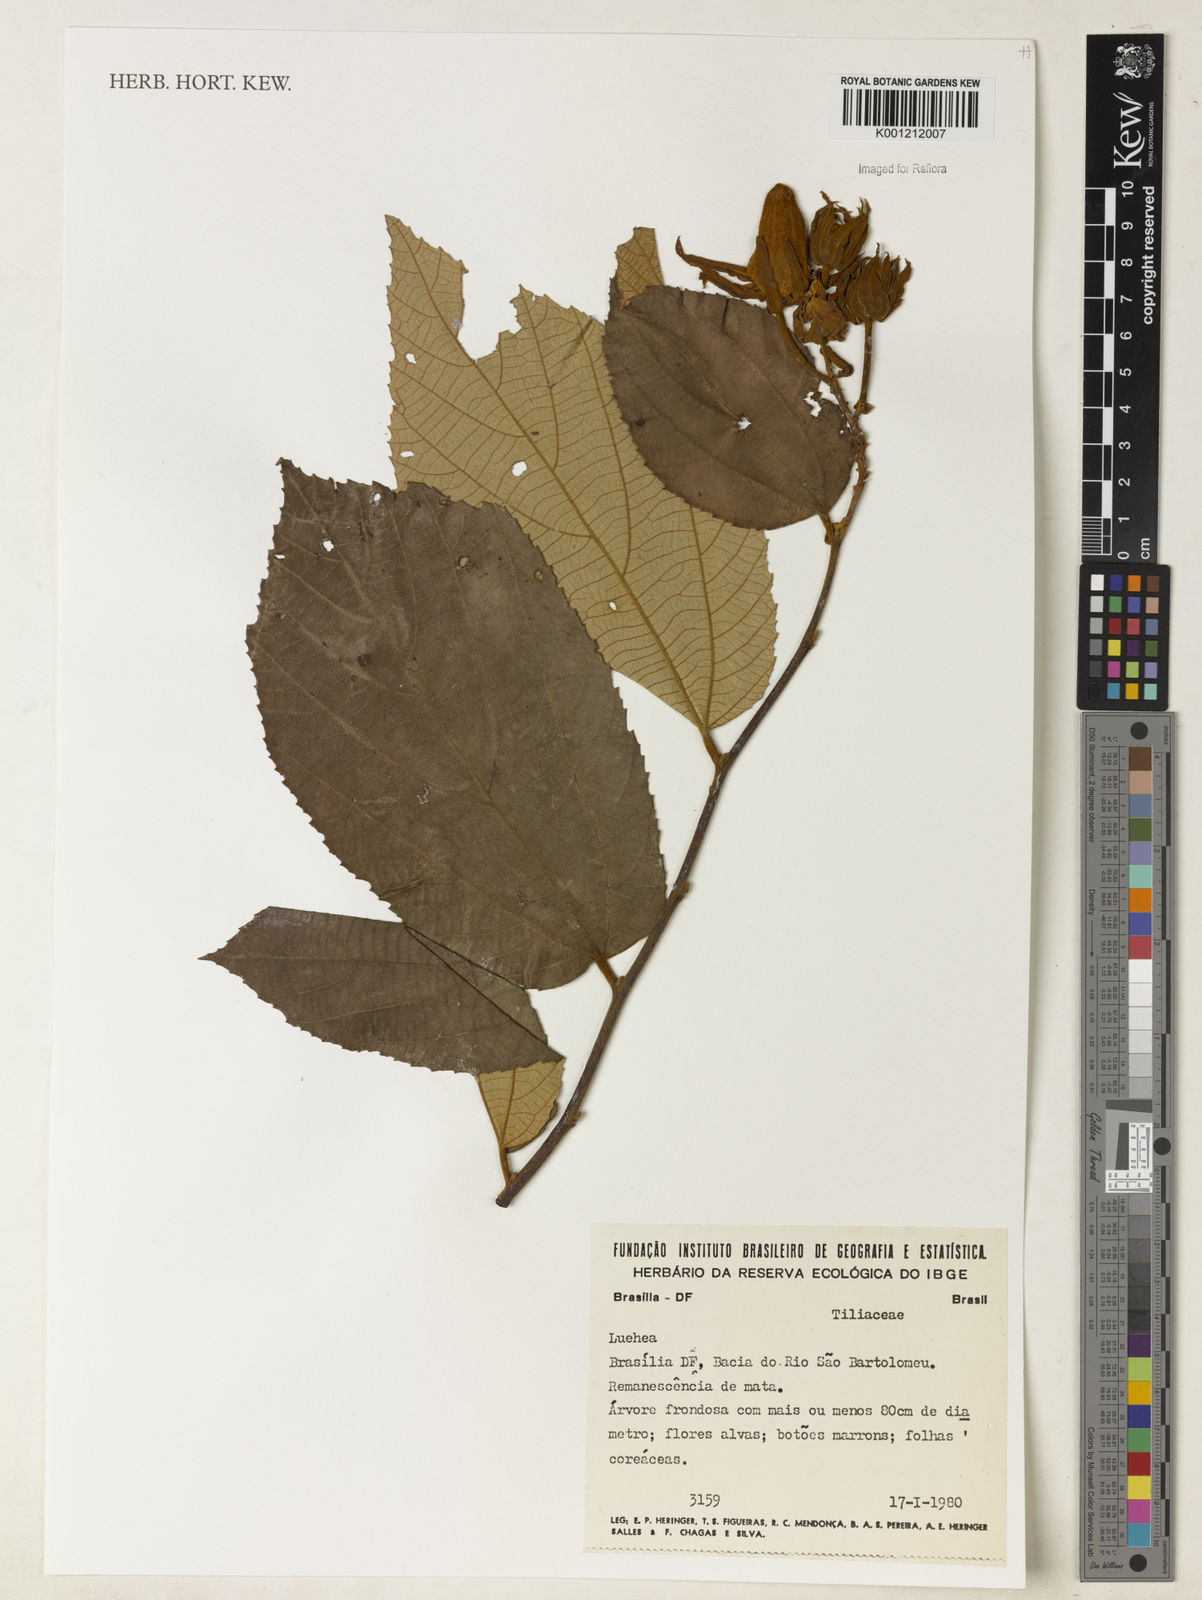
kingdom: Plantae
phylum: Tracheophyta
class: Magnoliopsida
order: Malvales
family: Malvaceae
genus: Luehea
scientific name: Luehea
